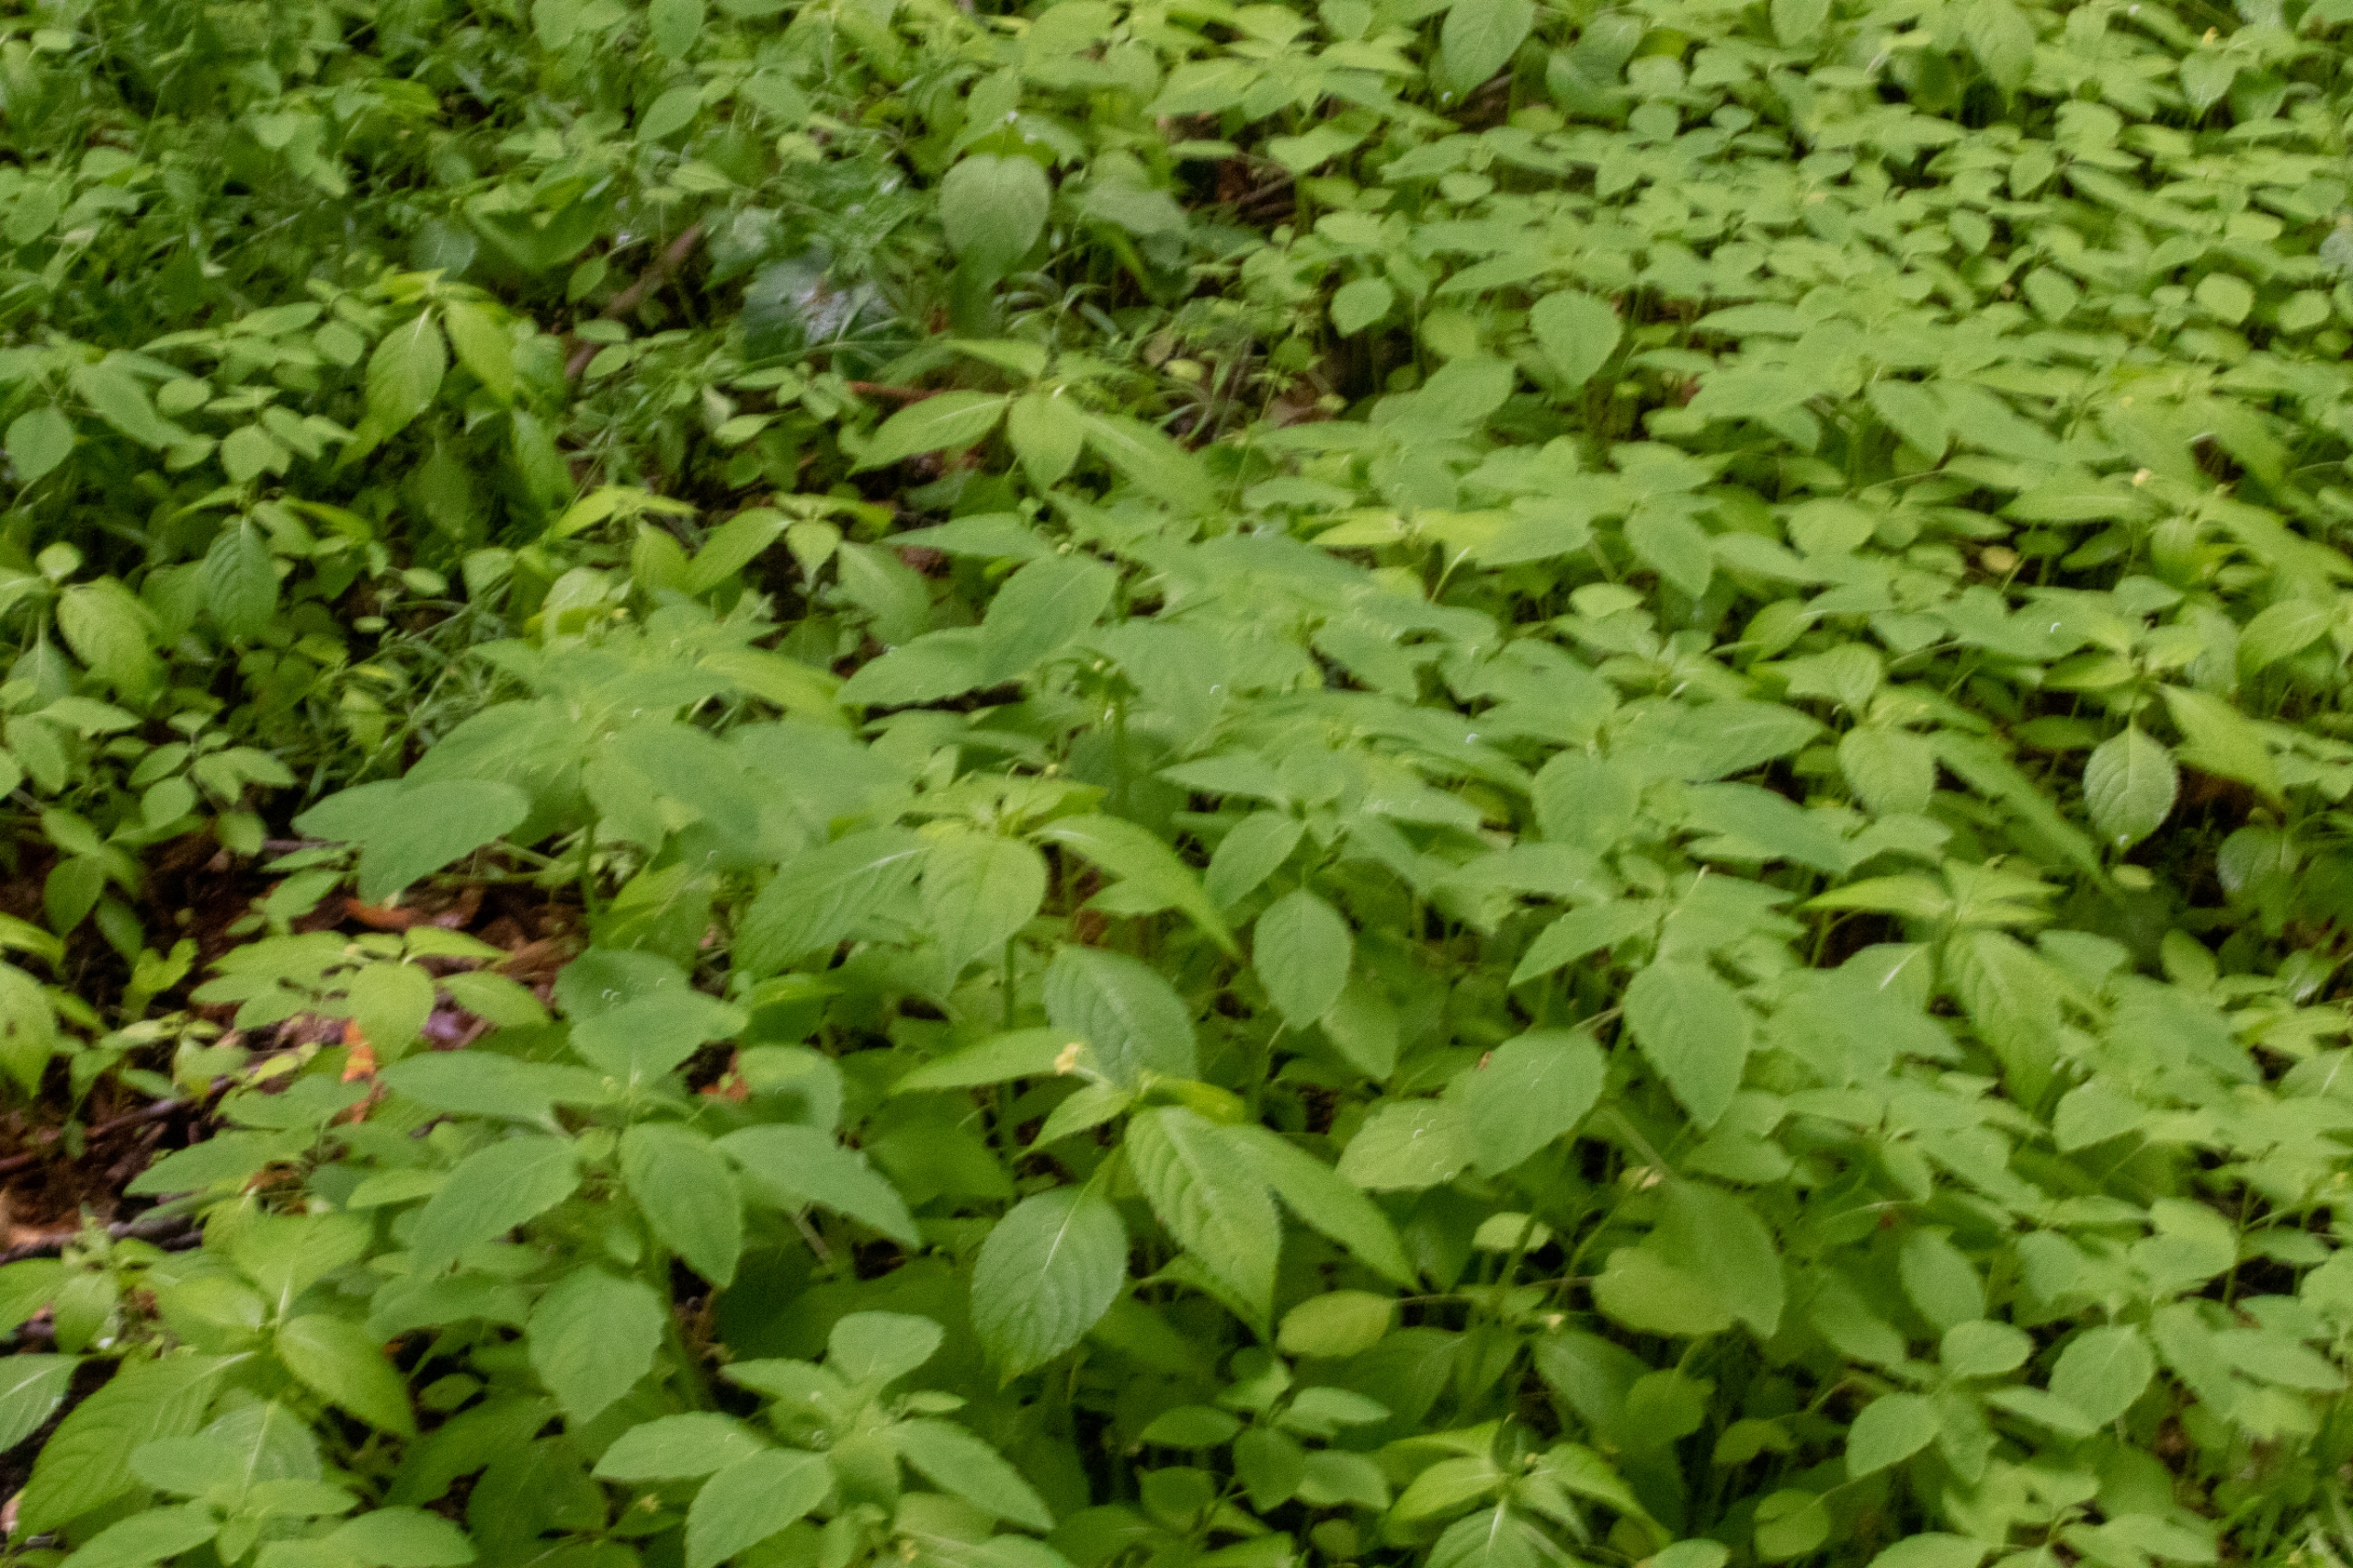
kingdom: Plantae
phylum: Tracheophyta
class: Magnoliopsida
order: Ericales
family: Balsaminaceae
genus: Impatiens
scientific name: Impatiens parviflora
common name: Småblomstret balsamin
